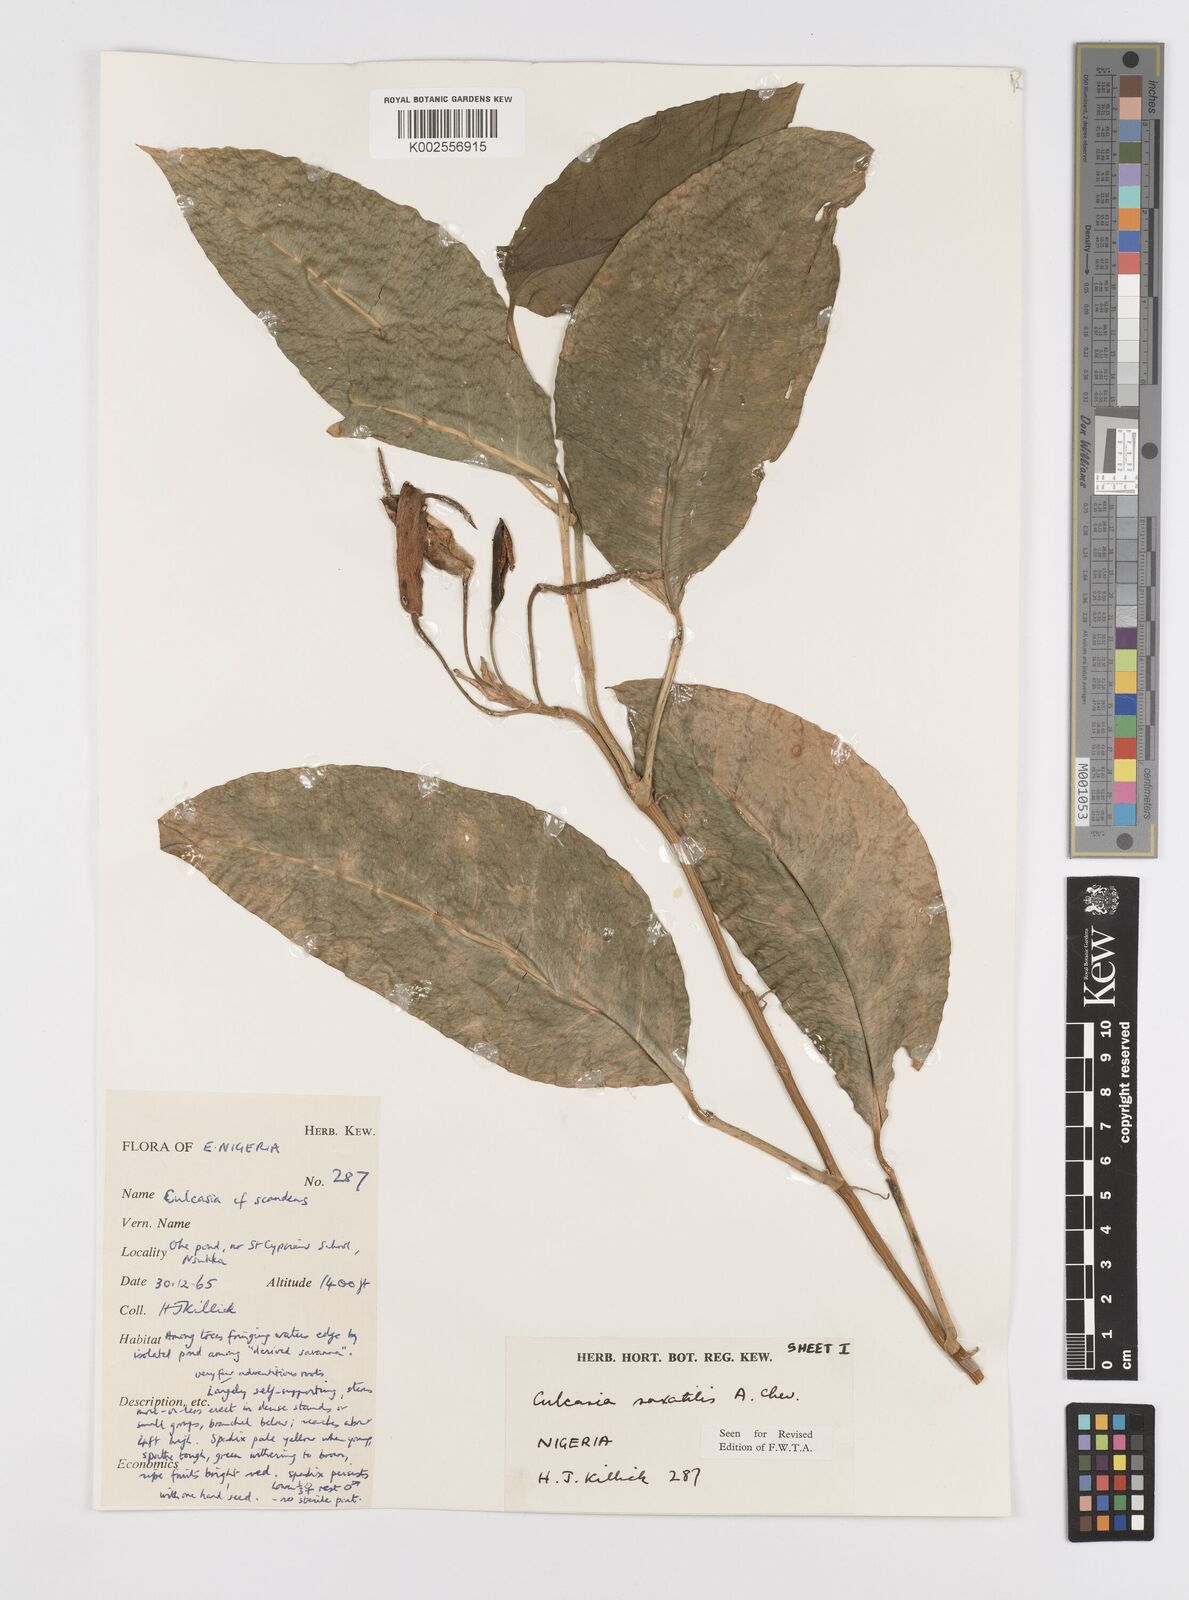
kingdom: Plantae
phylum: Tracheophyta
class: Liliopsida
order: Alismatales
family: Araceae
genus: Culcasia
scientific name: Culcasia scandens
